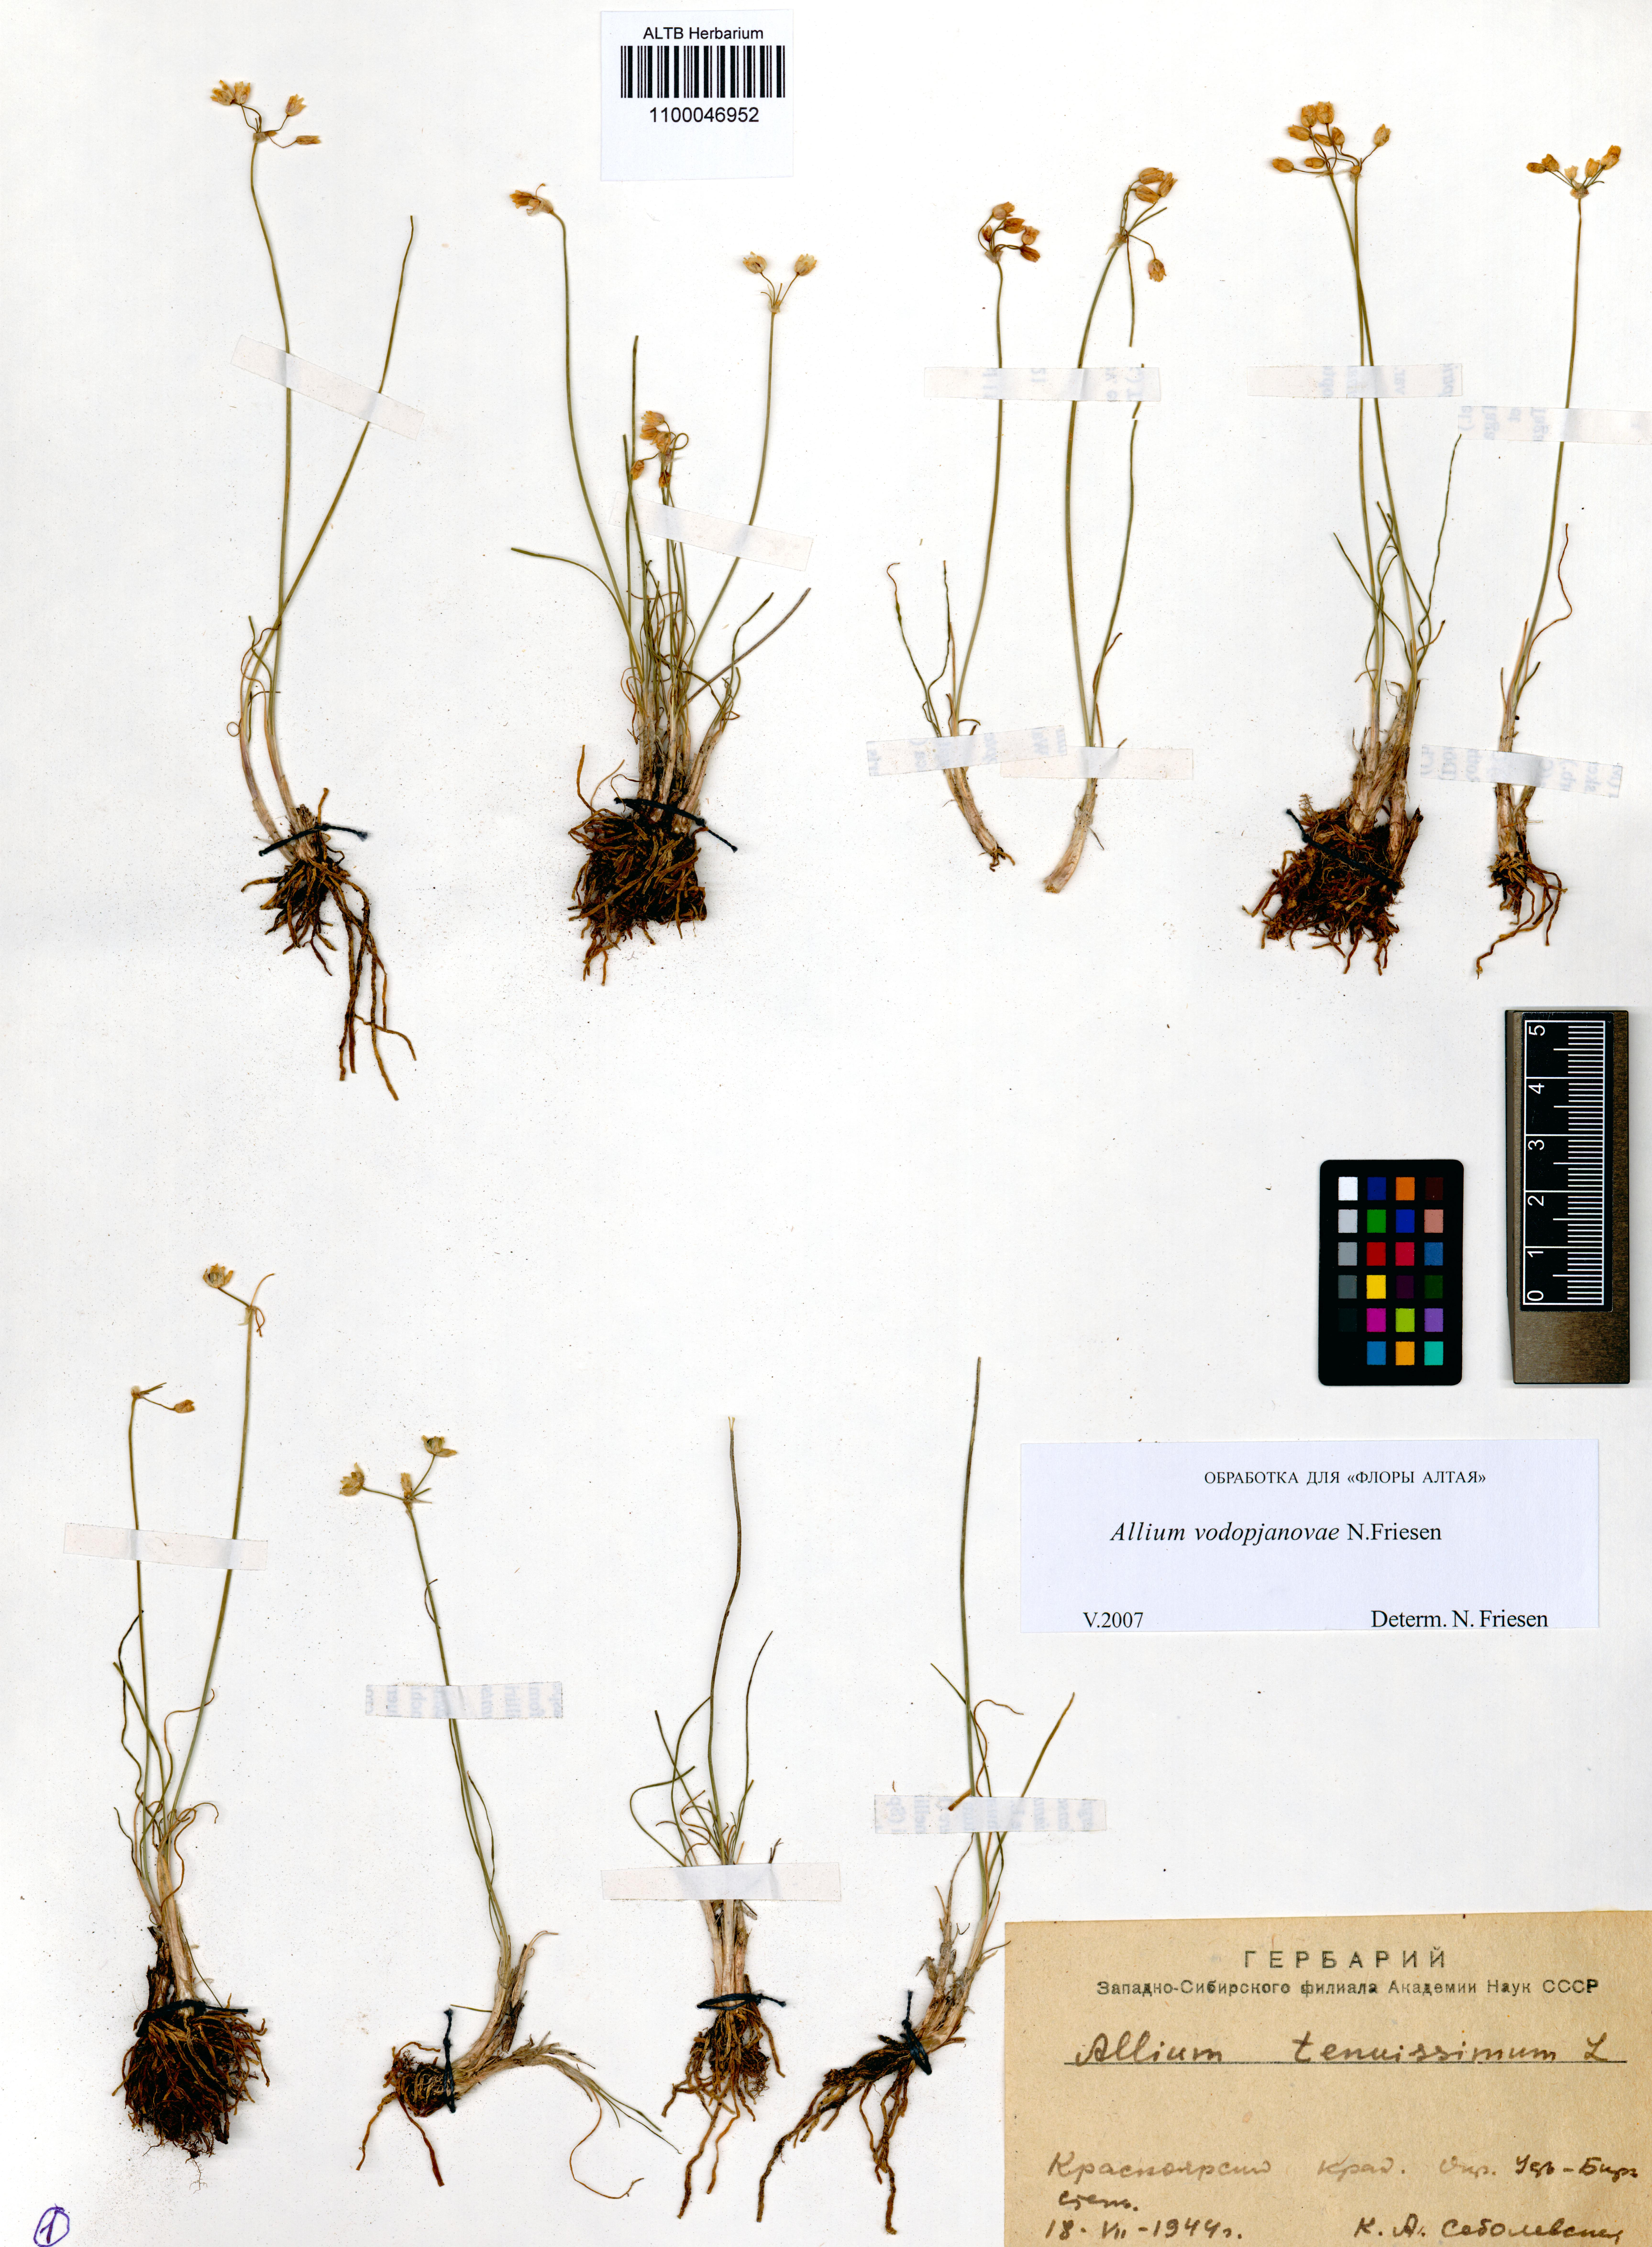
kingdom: Plantae
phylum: Tracheophyta
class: Liliopsida
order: Asparagales
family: Amaryllidaceae
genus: Allium
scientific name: Allium vodopjanovae
